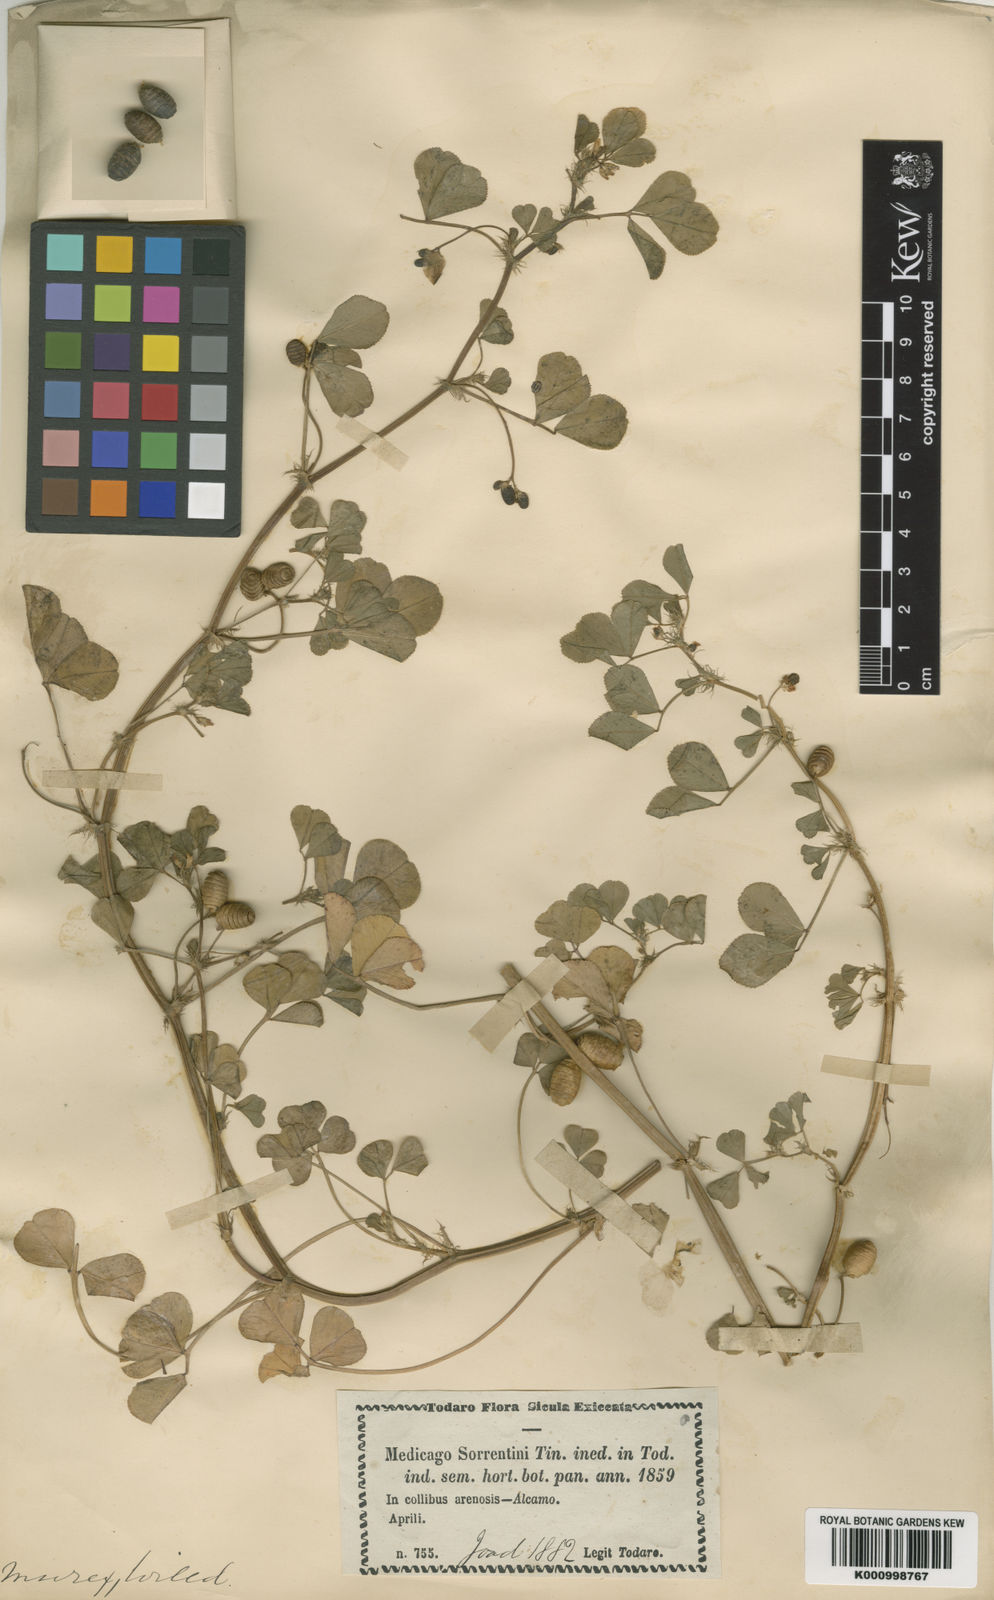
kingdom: Plantae
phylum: Tracheophyta
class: Magnoliopsida
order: Fabales
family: Fabaceae
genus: Medicago
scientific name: Medicago murex
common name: Murex
